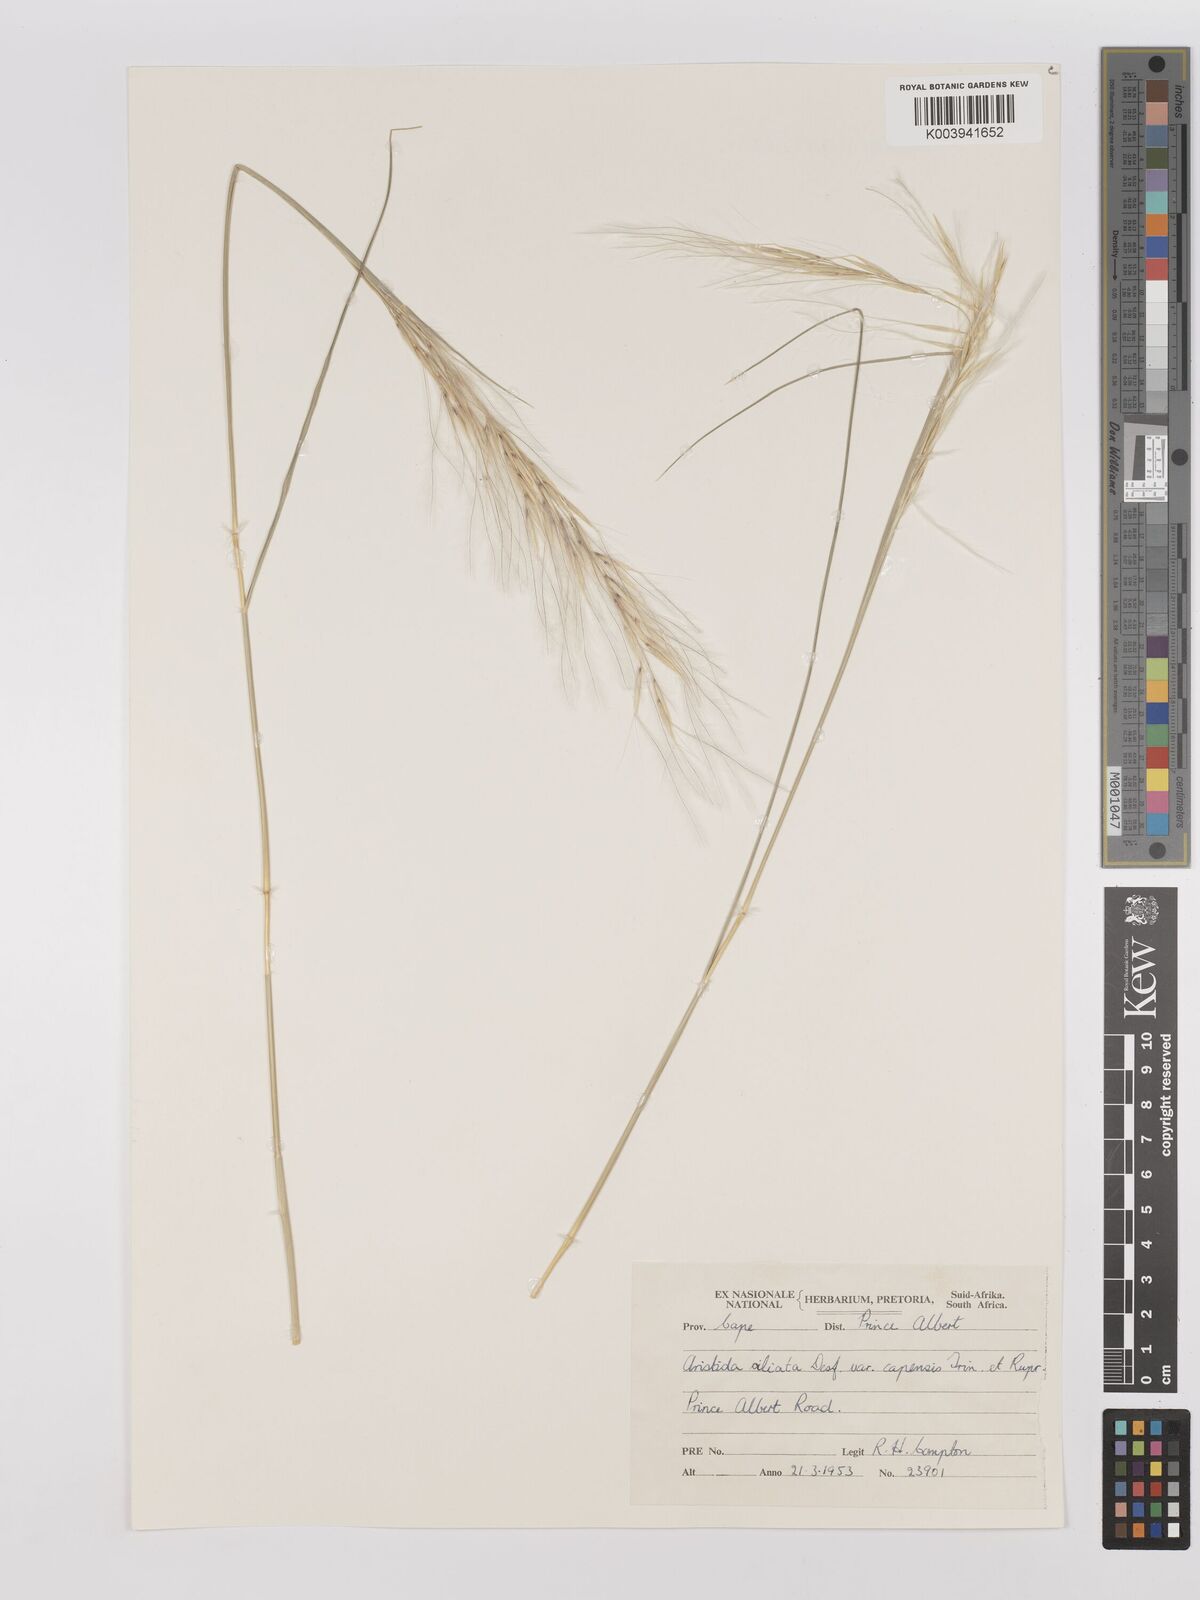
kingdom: Plantae
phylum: Tracheophyta
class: Liliopsida
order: Poales
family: Poaceae
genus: Stipagrostis
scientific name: Stipagrostis ciliata
